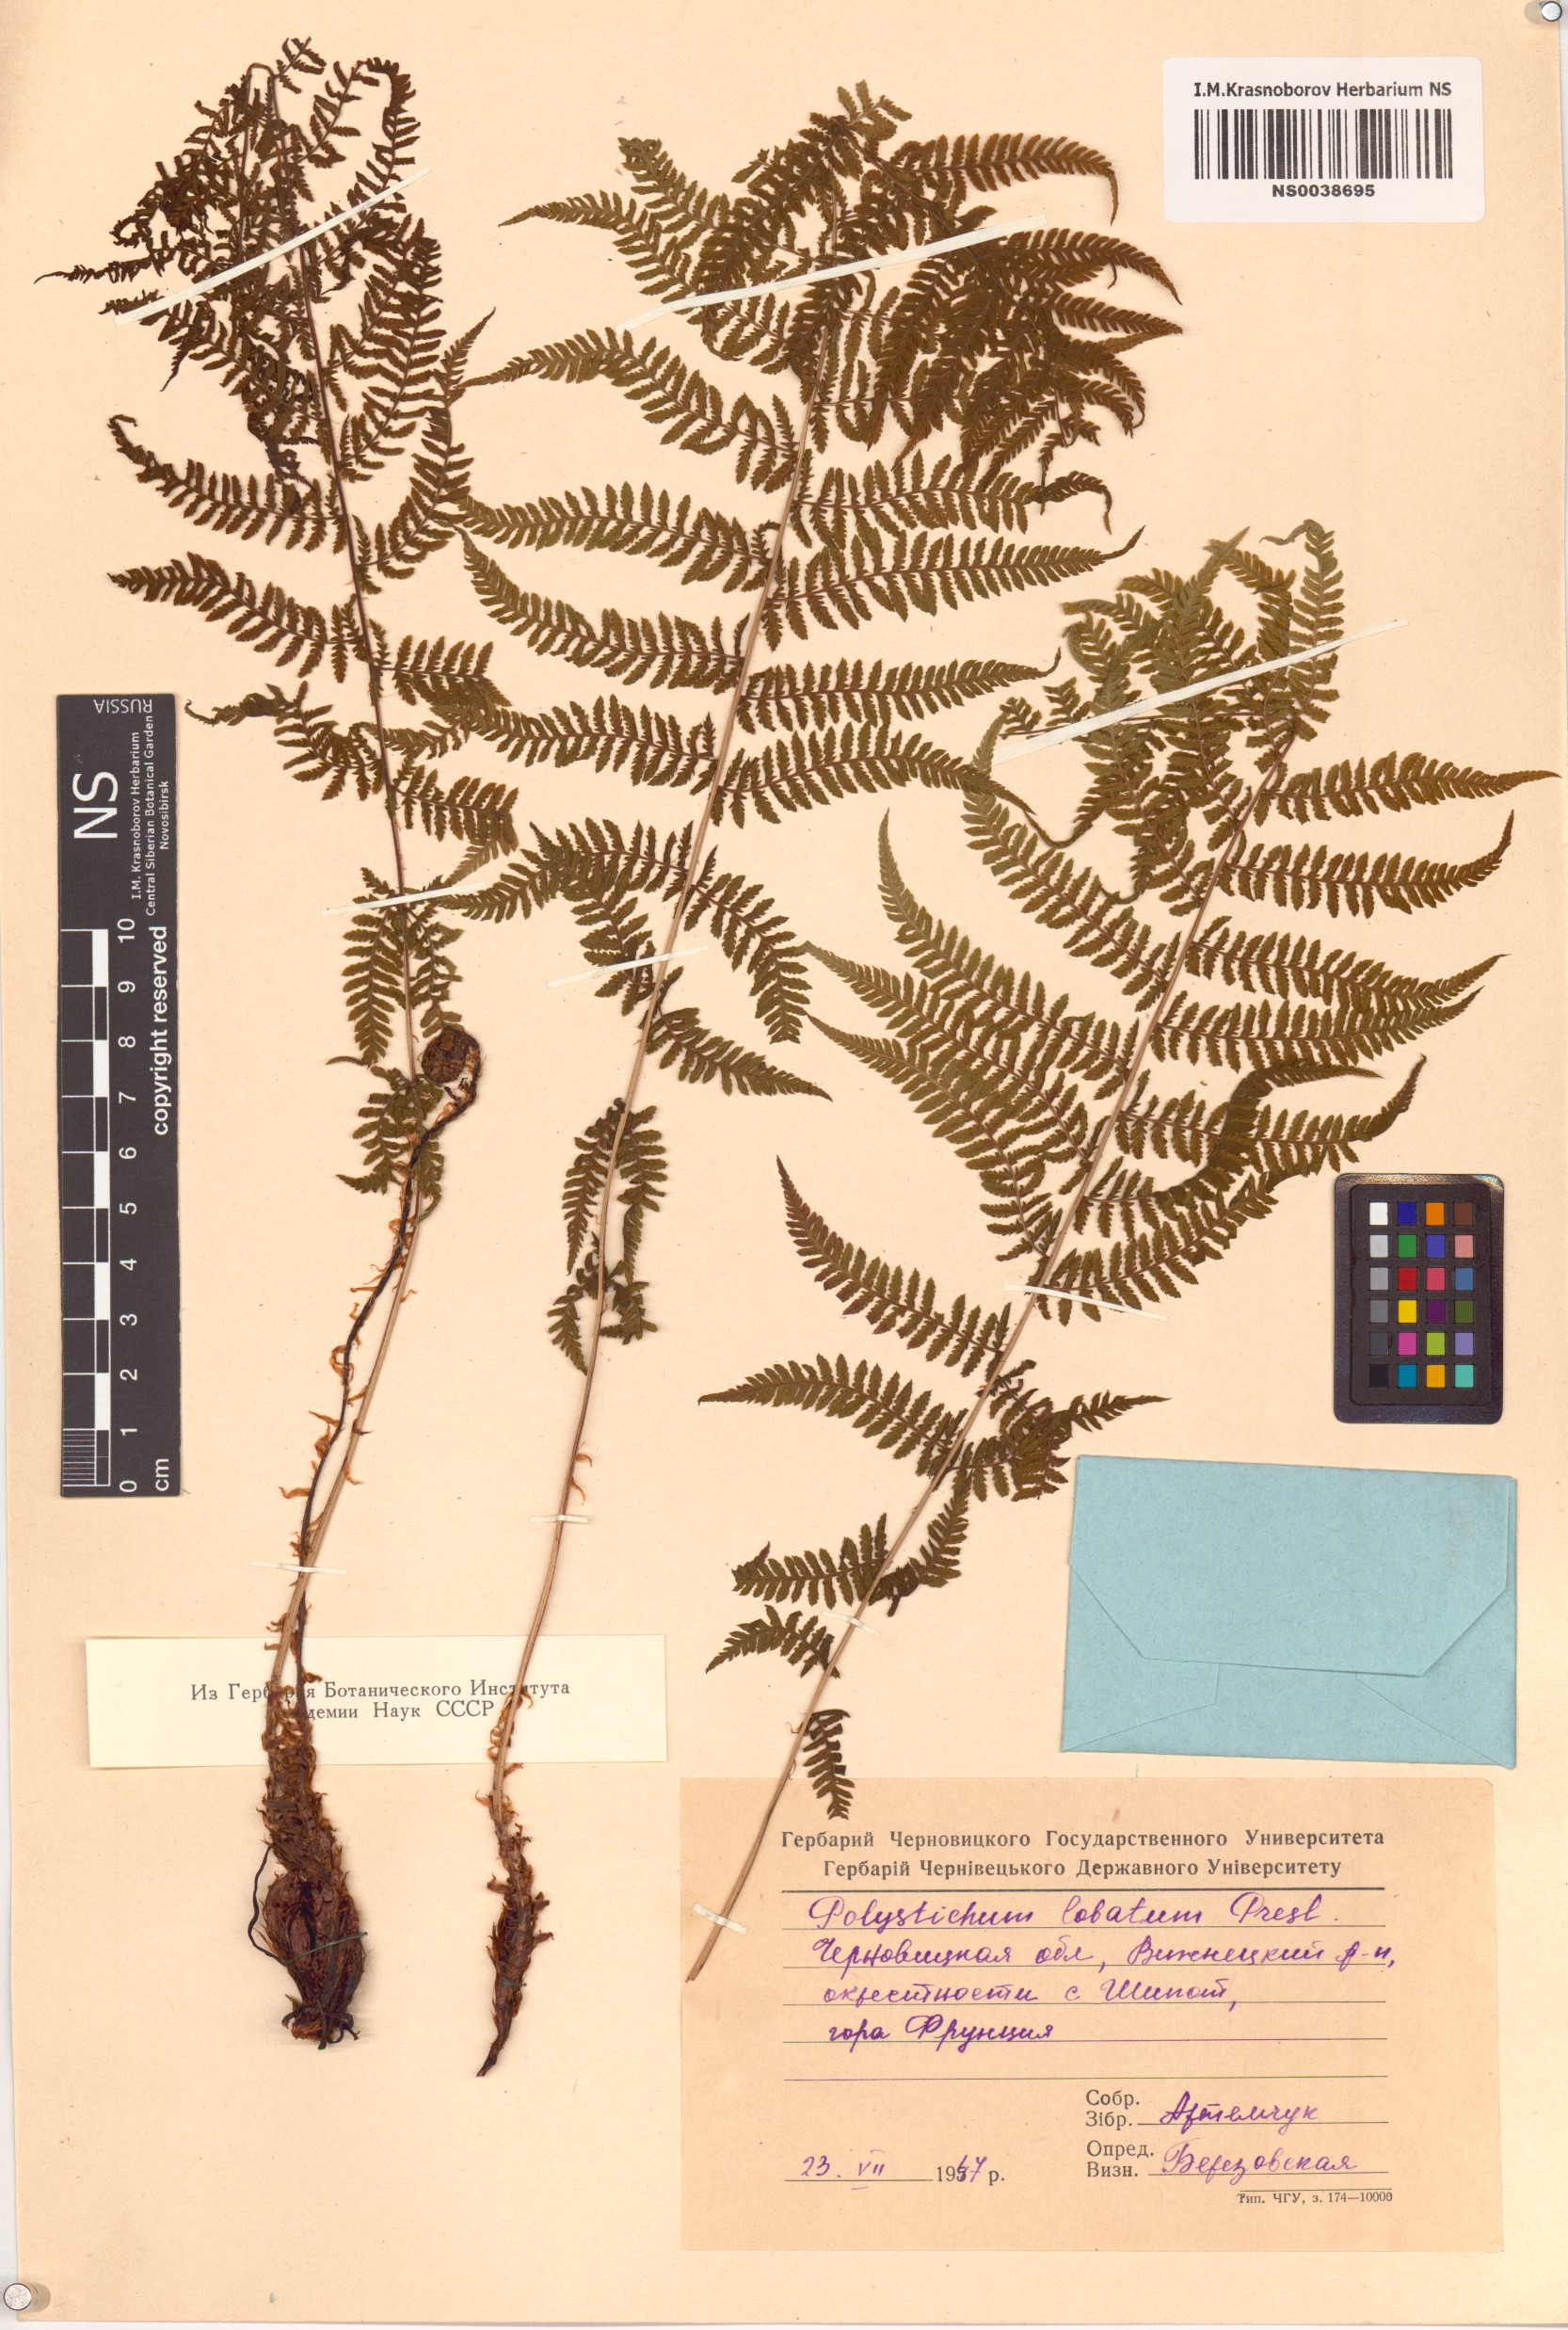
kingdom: Plantae
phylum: Tracheophyta
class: Polypodiopsida
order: Polypodiales
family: Dryopteridaceae
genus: Polystichum
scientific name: Polystichum aculeatum
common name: Hard shield-fern
